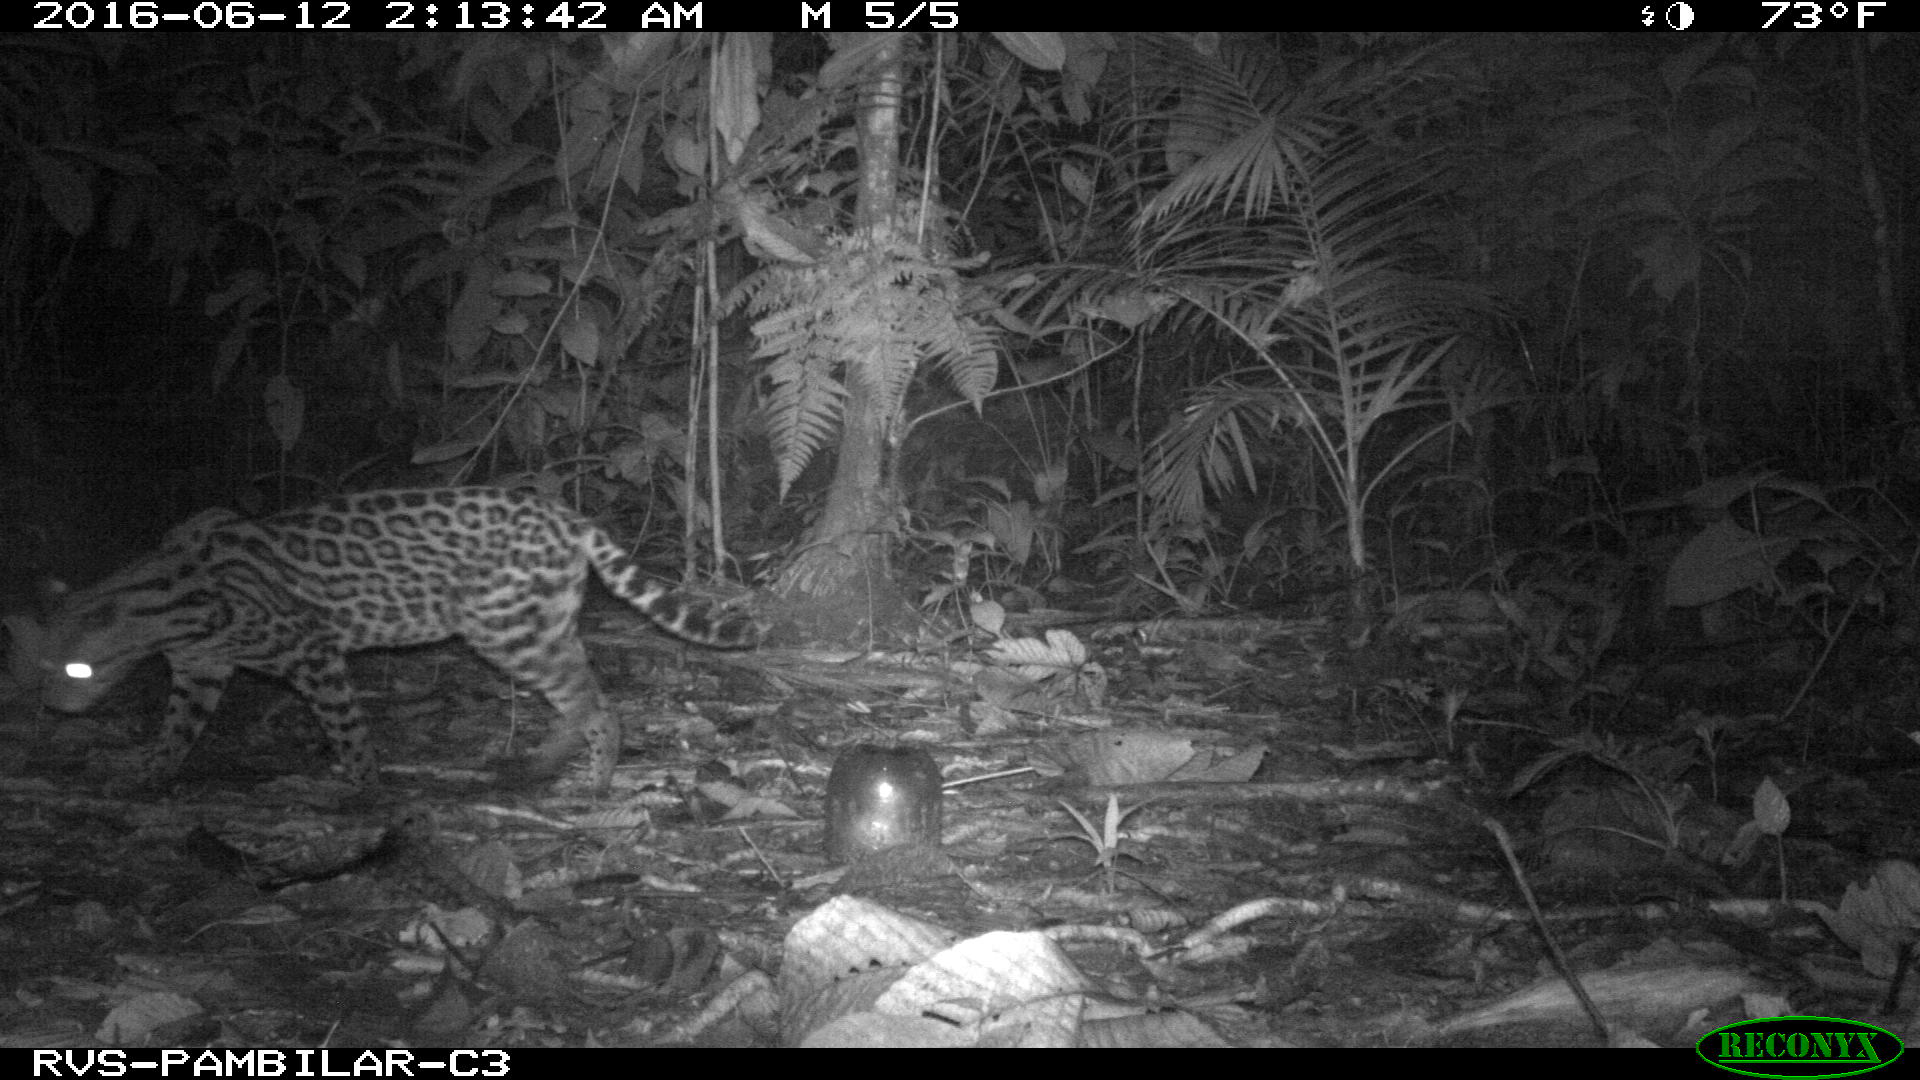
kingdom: Animalia
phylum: Chordata
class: Mammalia
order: Carnivora
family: Felidae
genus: Leopardus
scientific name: Leopardus pardalis
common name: Ocelot
